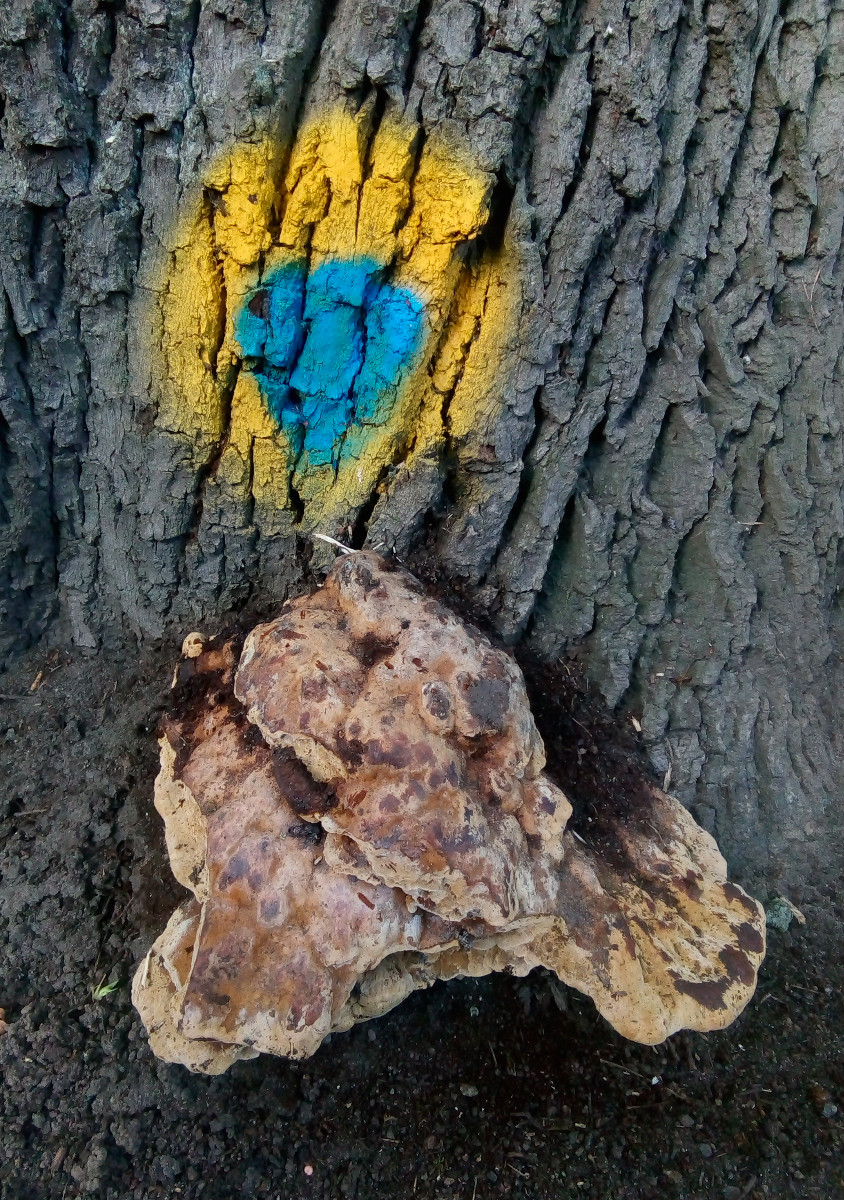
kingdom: Fungi
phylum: Basidiomycota
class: Agaricomycetes
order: Hymenochaetales
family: Hymenochaetaceae
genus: Pseudoinonotus
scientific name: Pseudoinonotus dryadeus
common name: ege-spejlporesvamp
